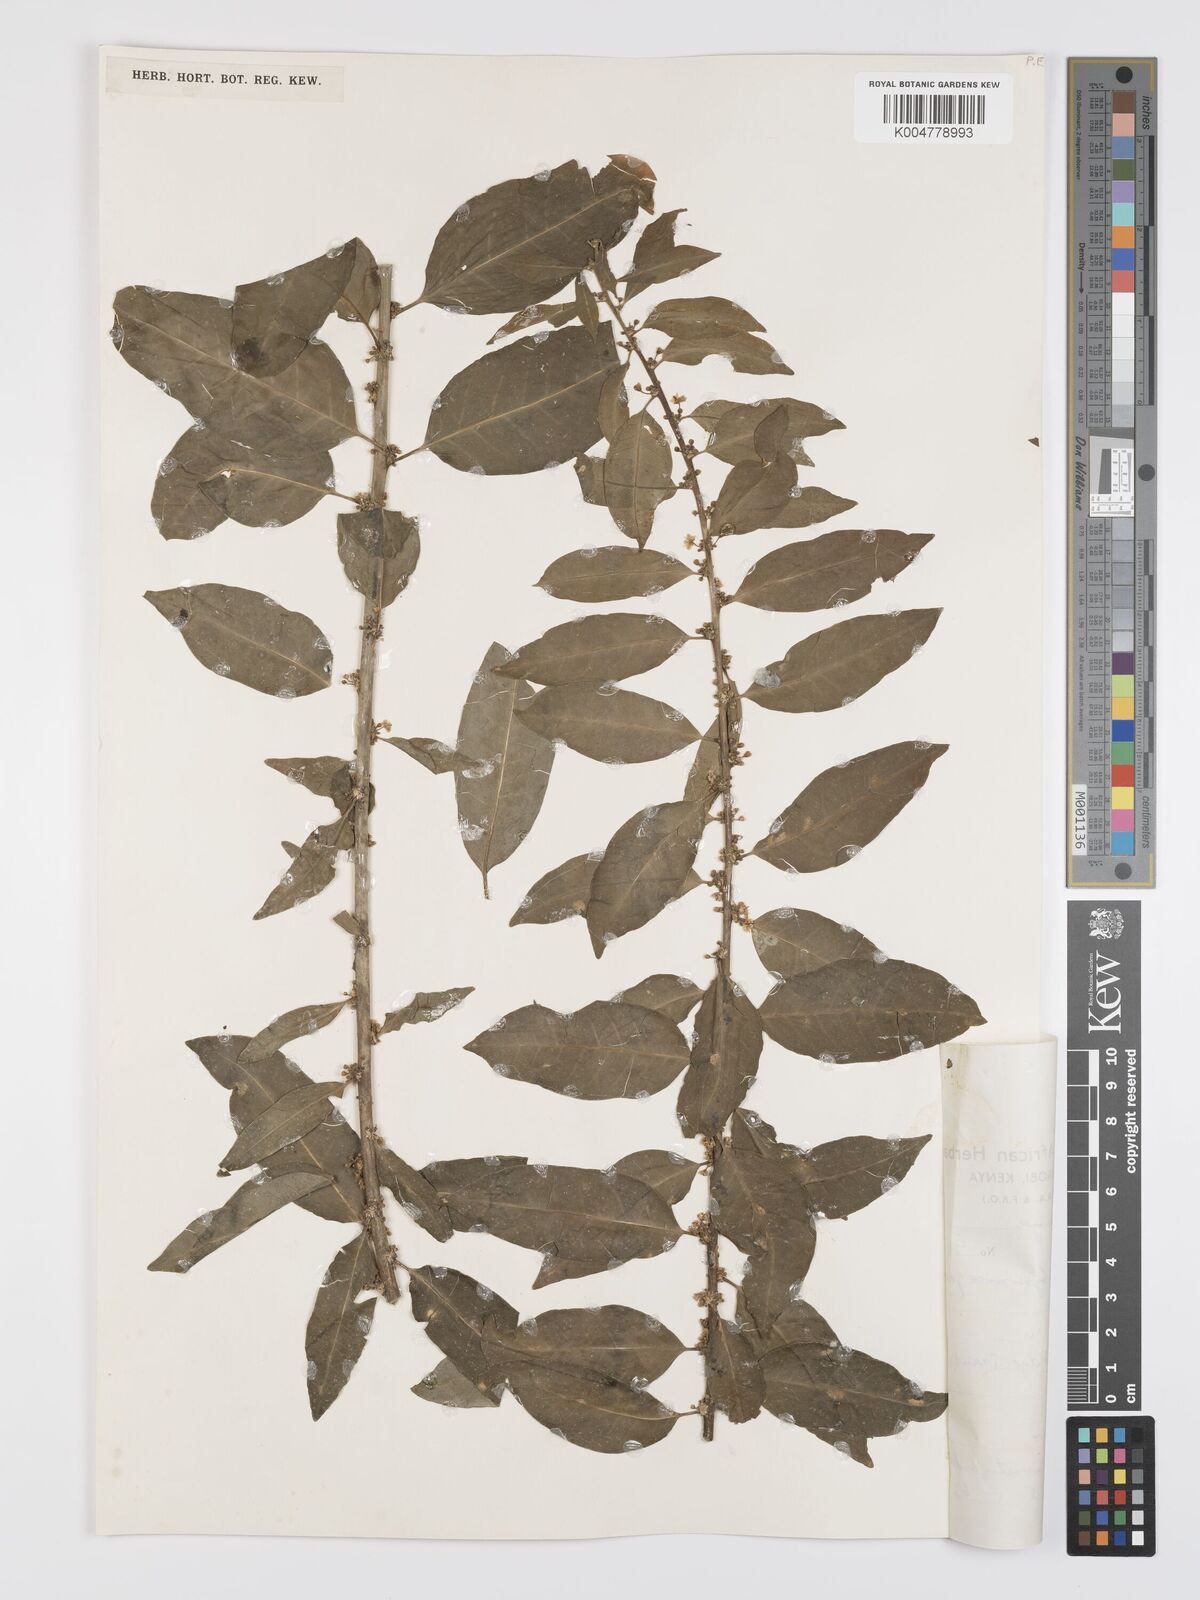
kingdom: Plantae
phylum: Tracheophyta
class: Magnoliopsida
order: Malpighiales
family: Peraceae
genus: Clutia
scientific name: Clutia abyssinica
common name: Large lightning bush
